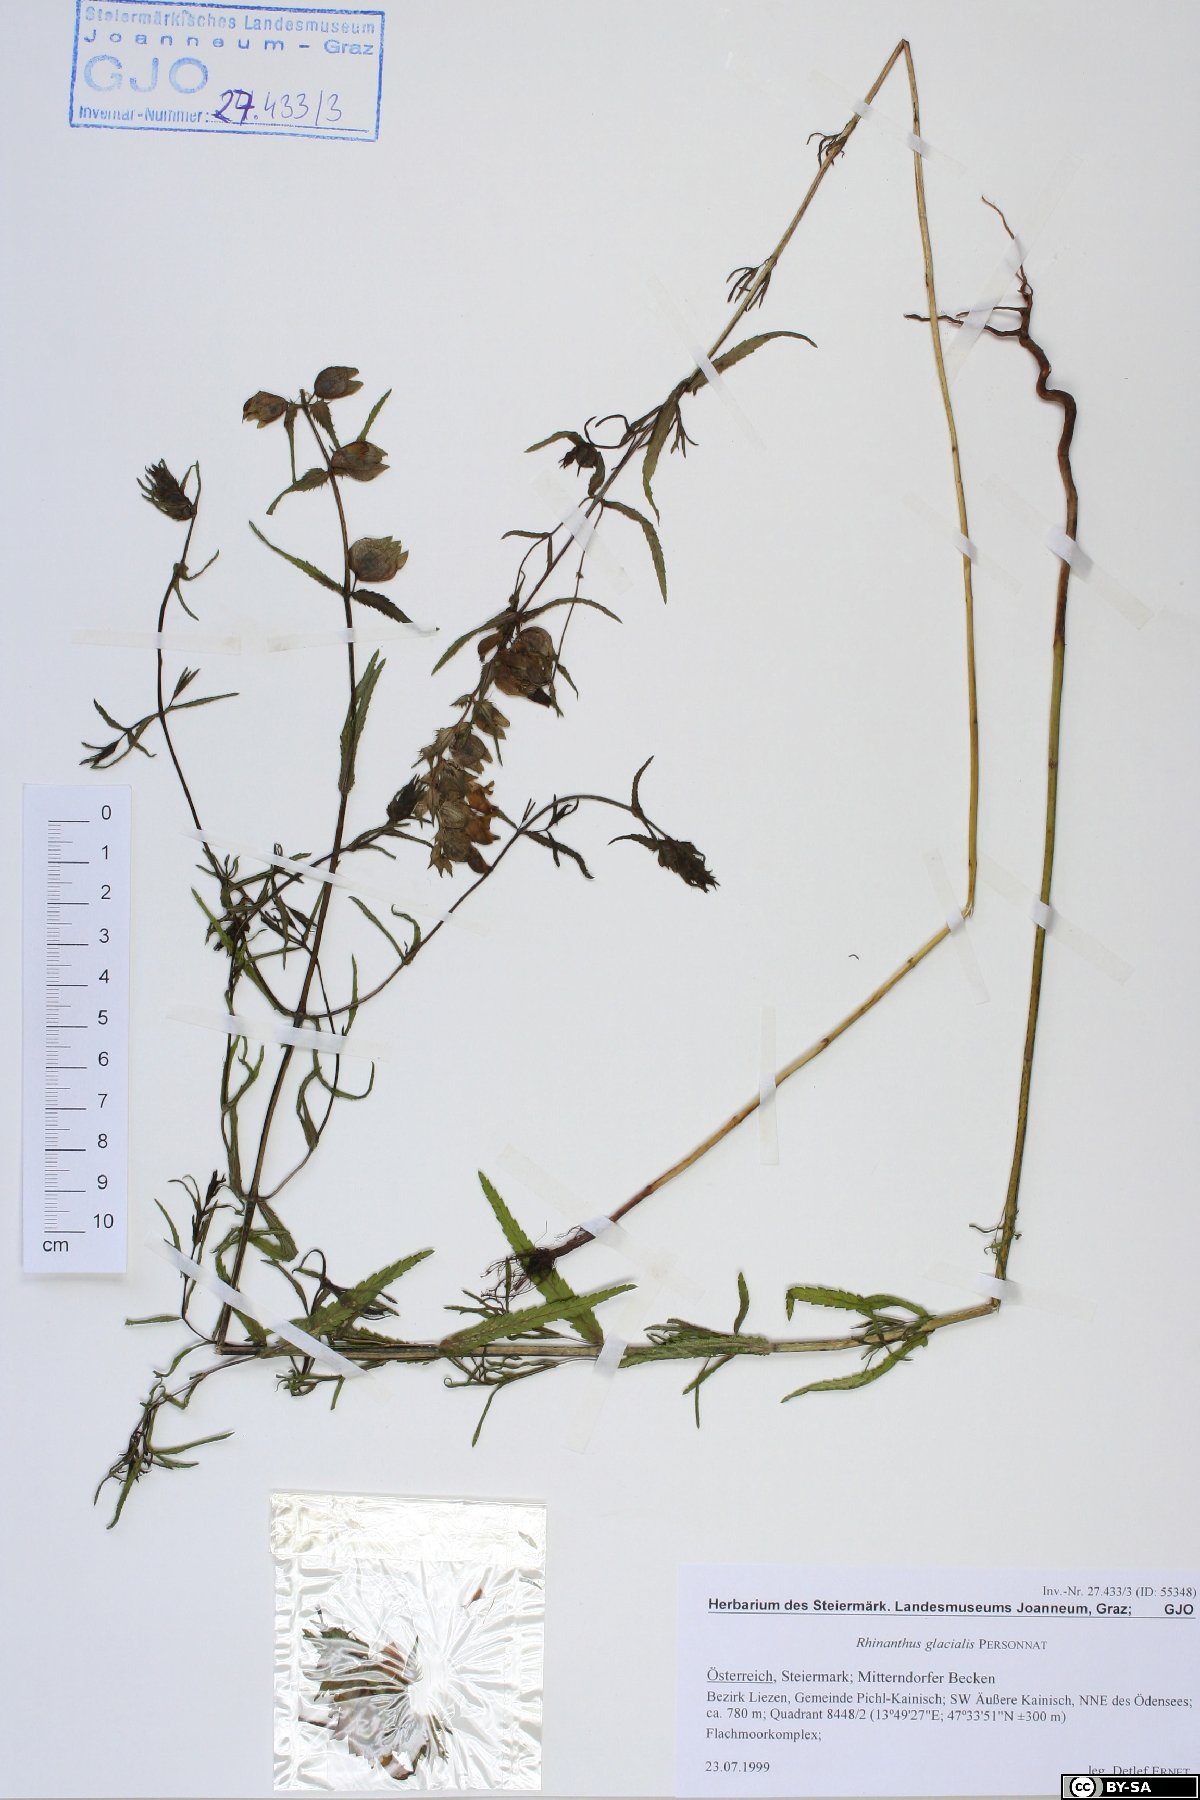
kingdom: Plantae
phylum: Tracheophyta
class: Magnoliopsida
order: Lamiales
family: Orobanchaceae
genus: Rhinanthus
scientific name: Rhinanthus glacialis
